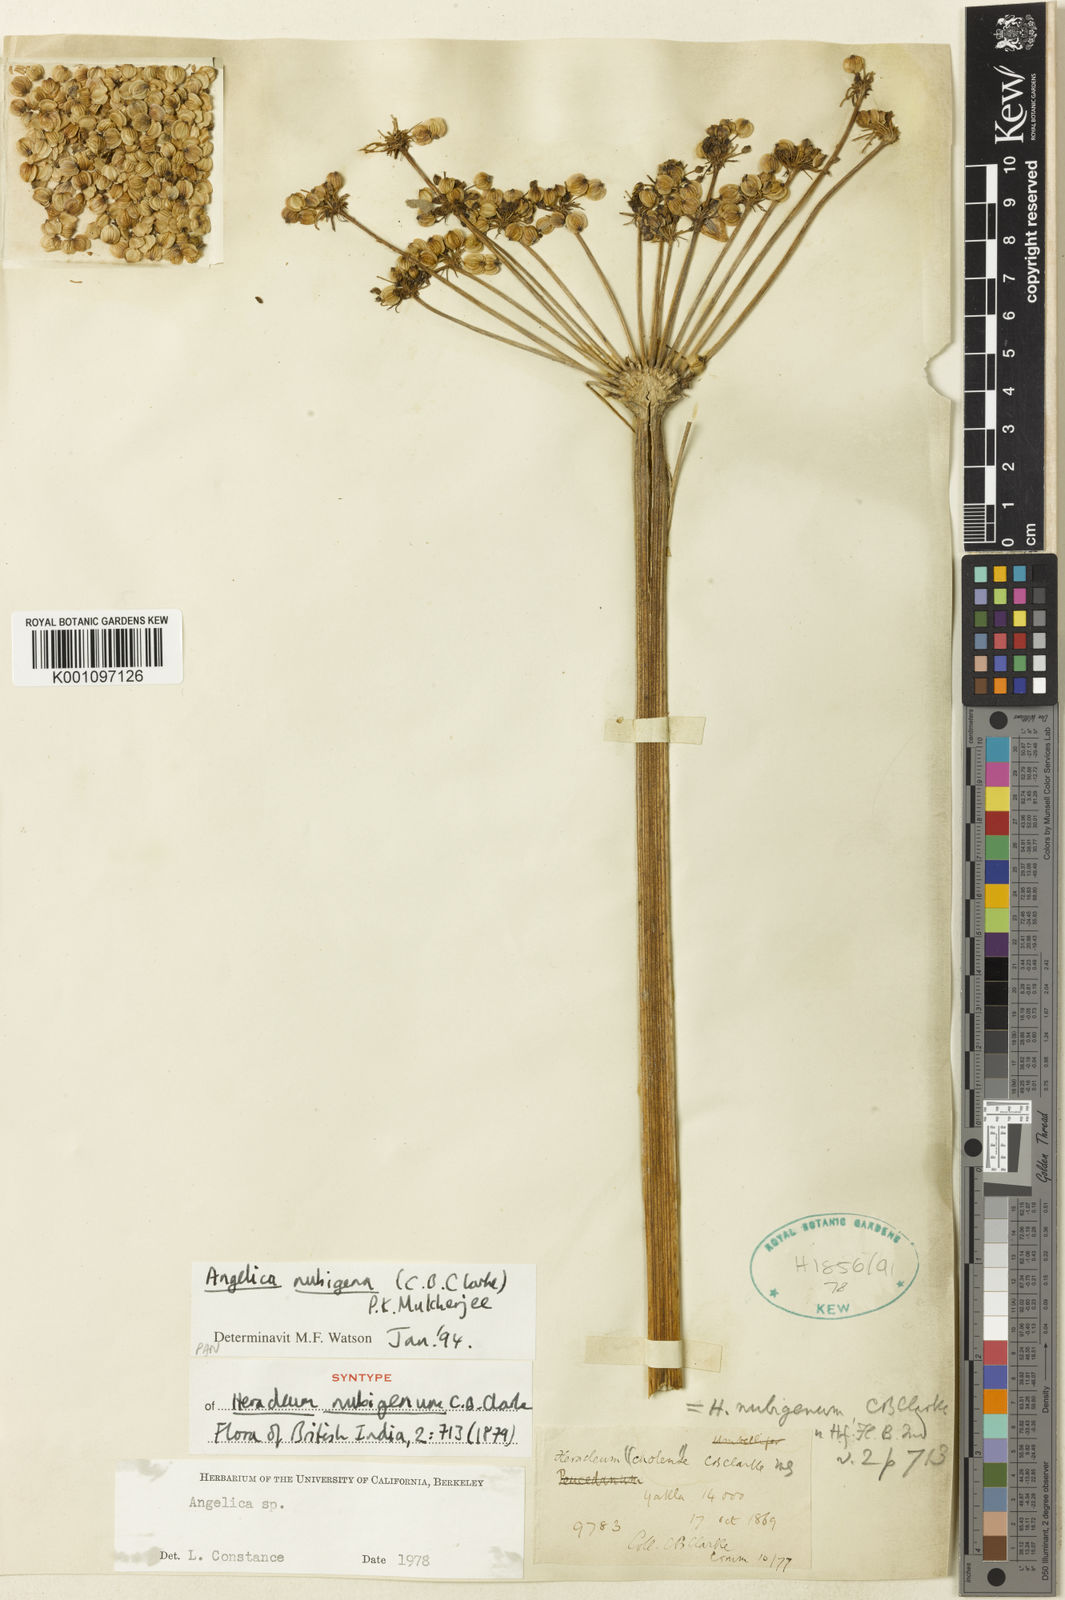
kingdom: Plantae
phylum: Tracheophyta
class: Magnoliopsida
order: Apiales
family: Apiaceae
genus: Angelica
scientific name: Angelica nubigena
